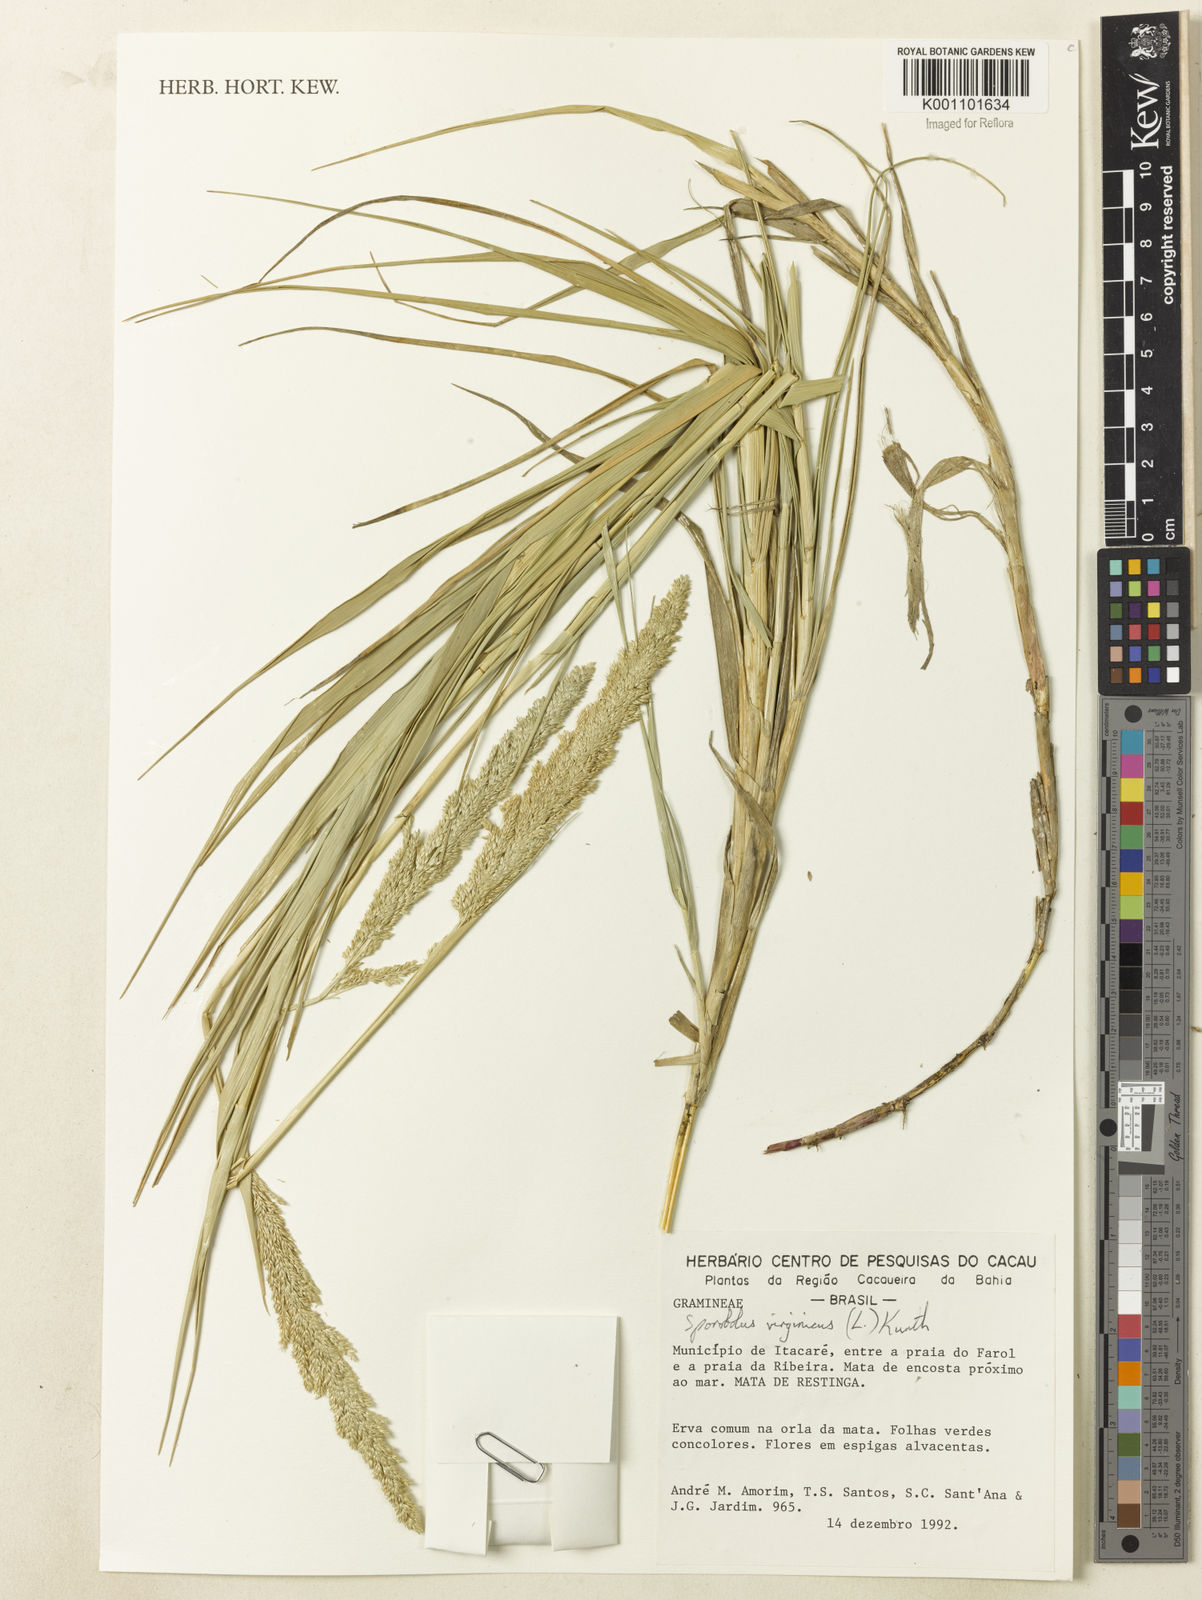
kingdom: Plantae
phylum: Tracheophyta
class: Liliopsida
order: Poales
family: Poaceae
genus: Sporobolus
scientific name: Sporobolus virginicus
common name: Beach dropseed
